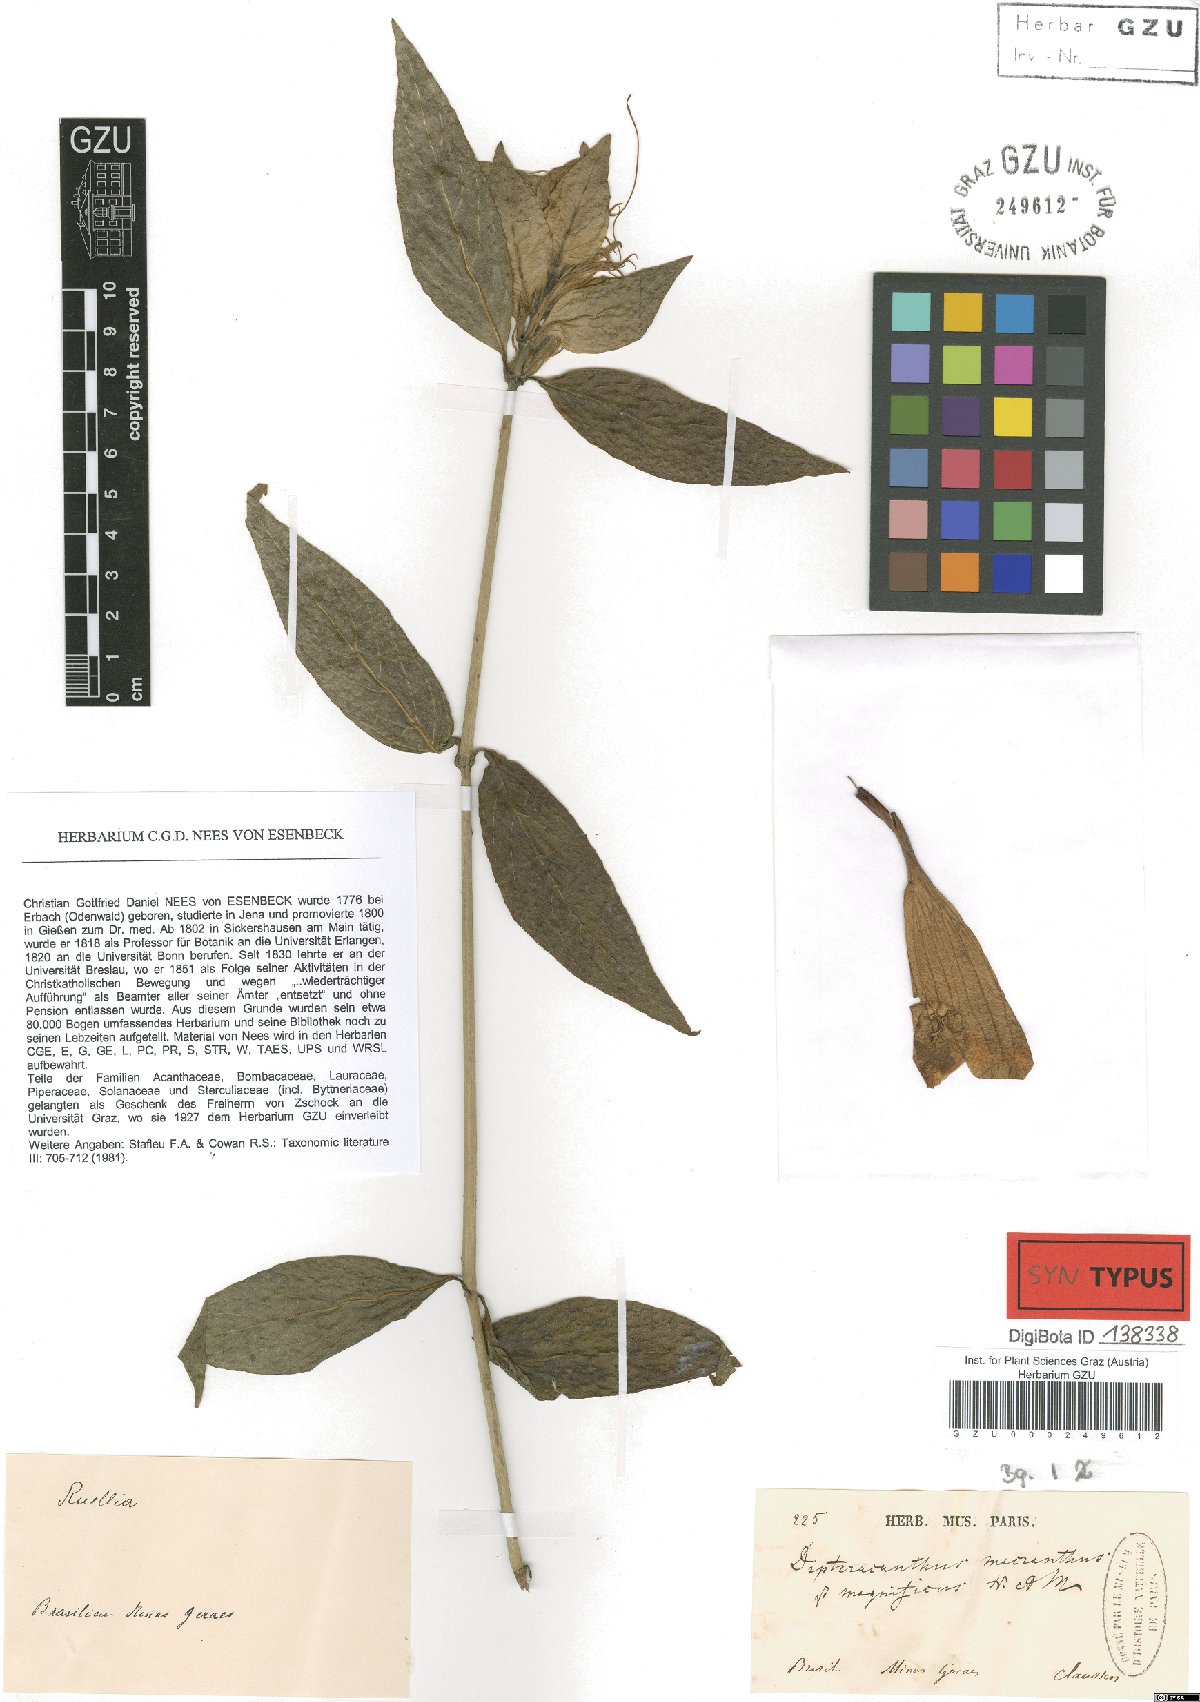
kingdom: Plantae
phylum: Tracheophyta
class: Magnoliopsida
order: Lamiales
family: Acanthaceae
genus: Ruellia
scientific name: Ruellia macrantha
